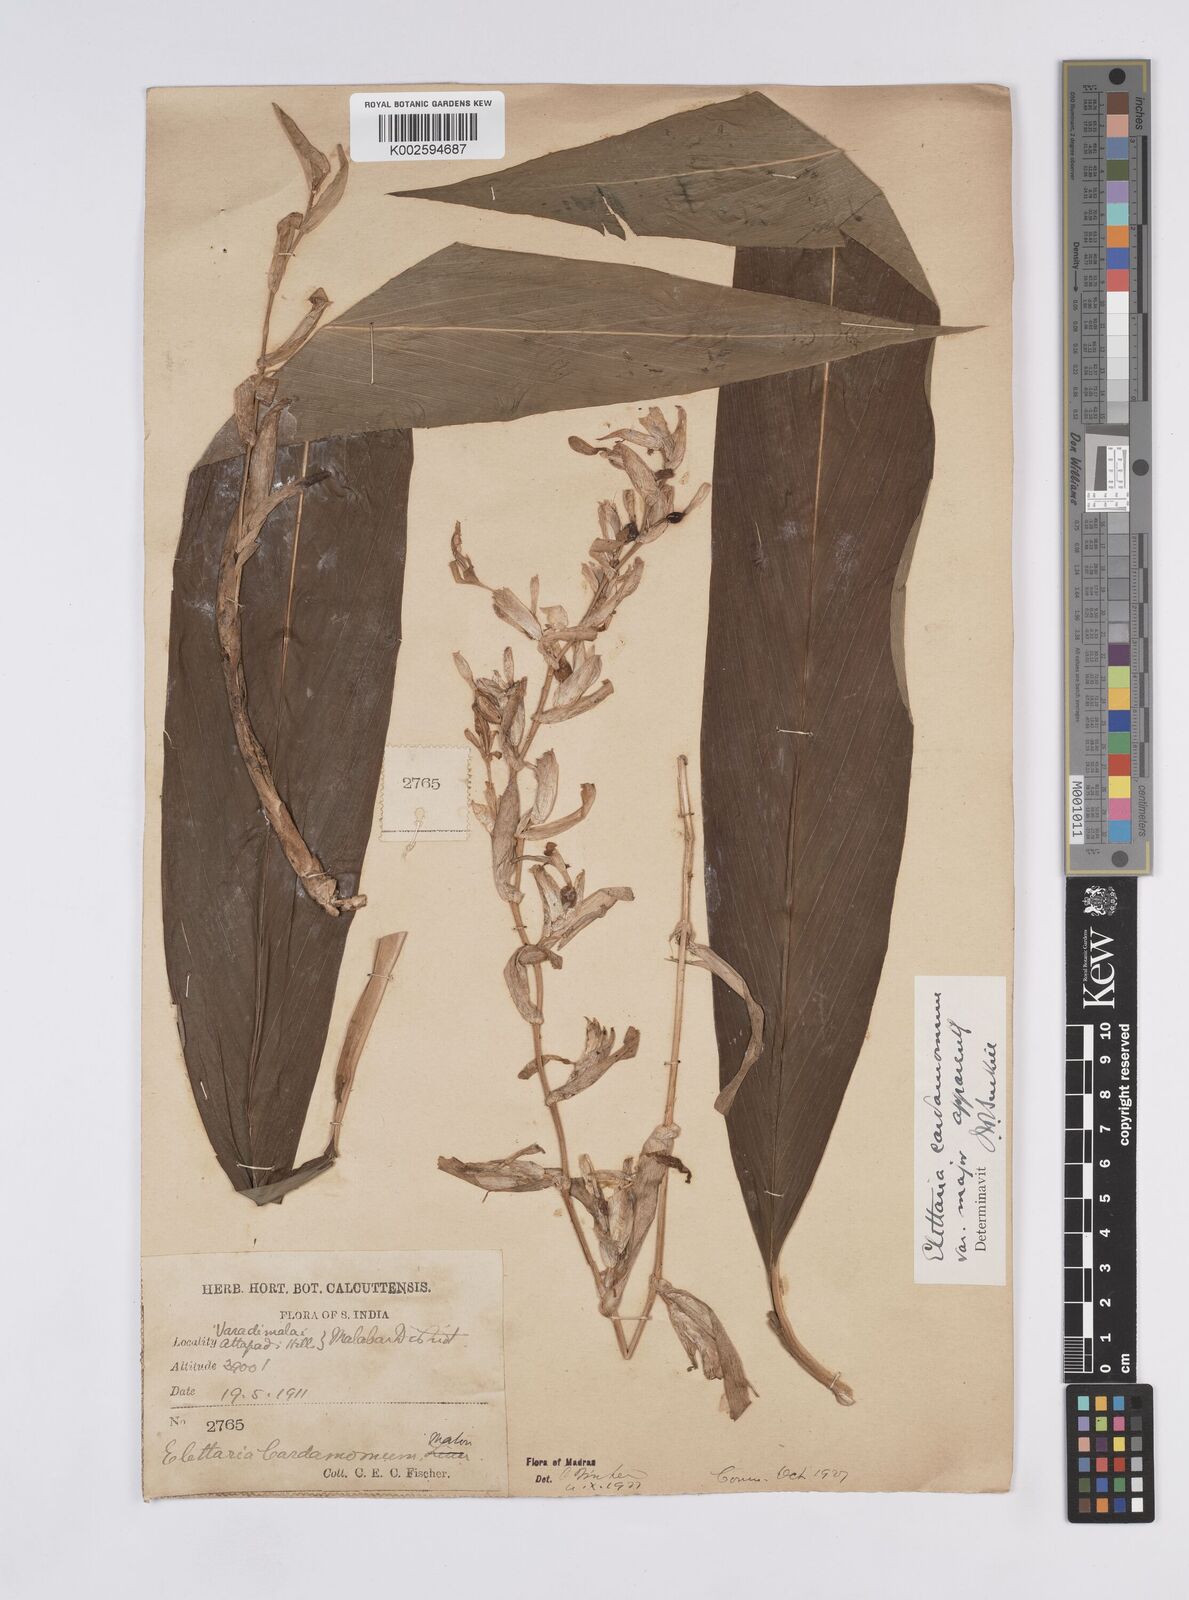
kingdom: Plantae
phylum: Tracheophyta
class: Liliopsida
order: Zingiberales
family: Zingiberaceae
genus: Elettaria
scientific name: Elettaria cardamomum
